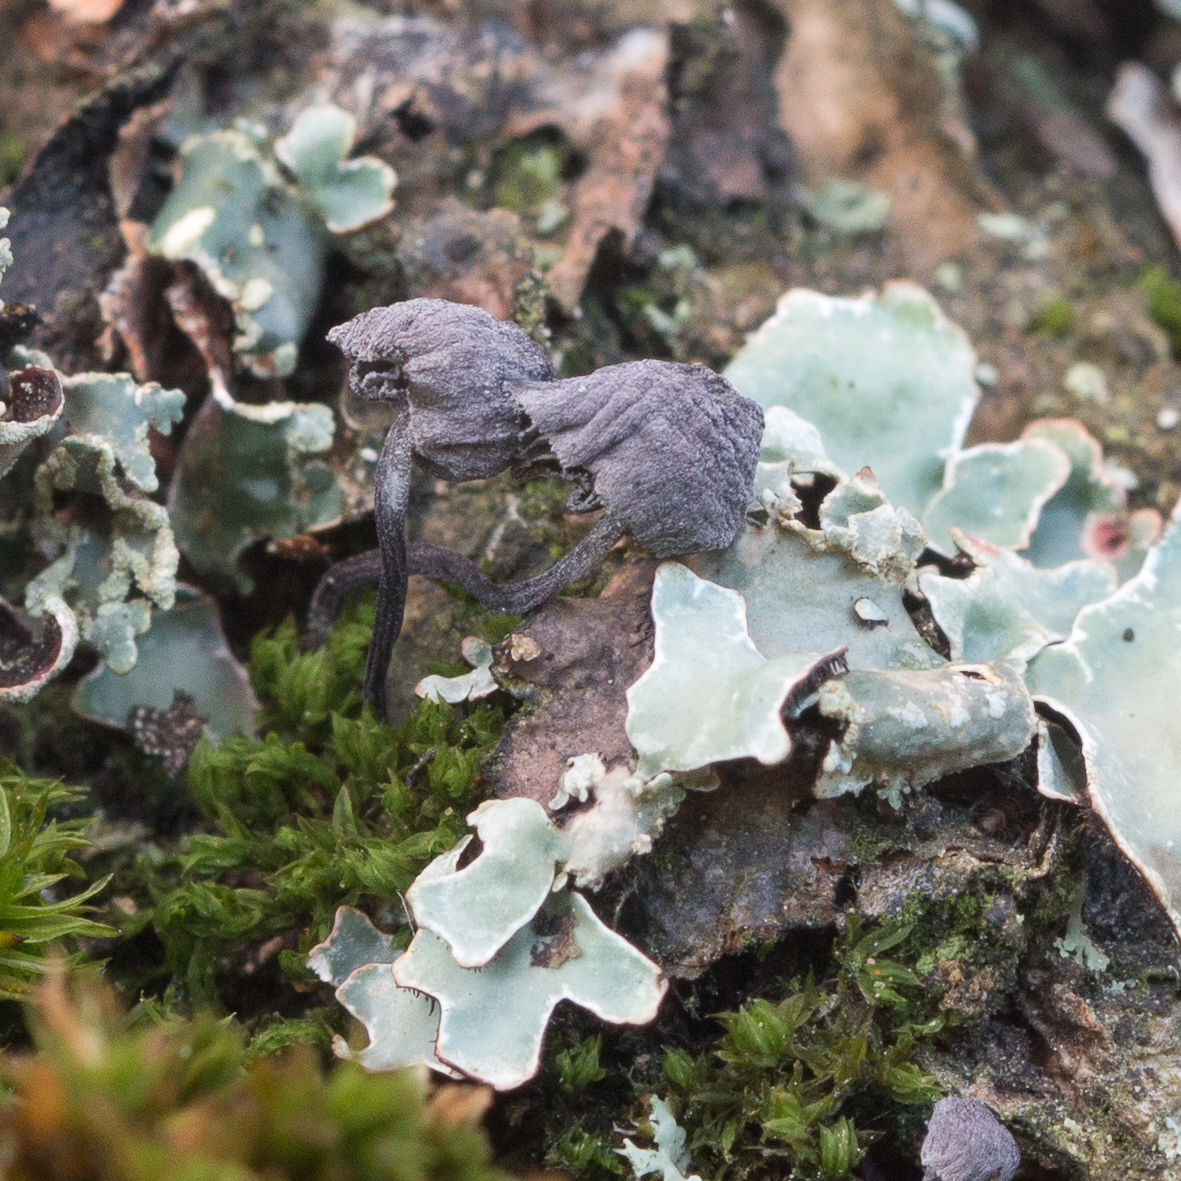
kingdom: Fungi
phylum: Basidiomycota
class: Agaricomycetes
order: Agaricales
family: Mycenaceae
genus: Mycena
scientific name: Mycena pseudocorticola
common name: gråblå bark-huesvamp
